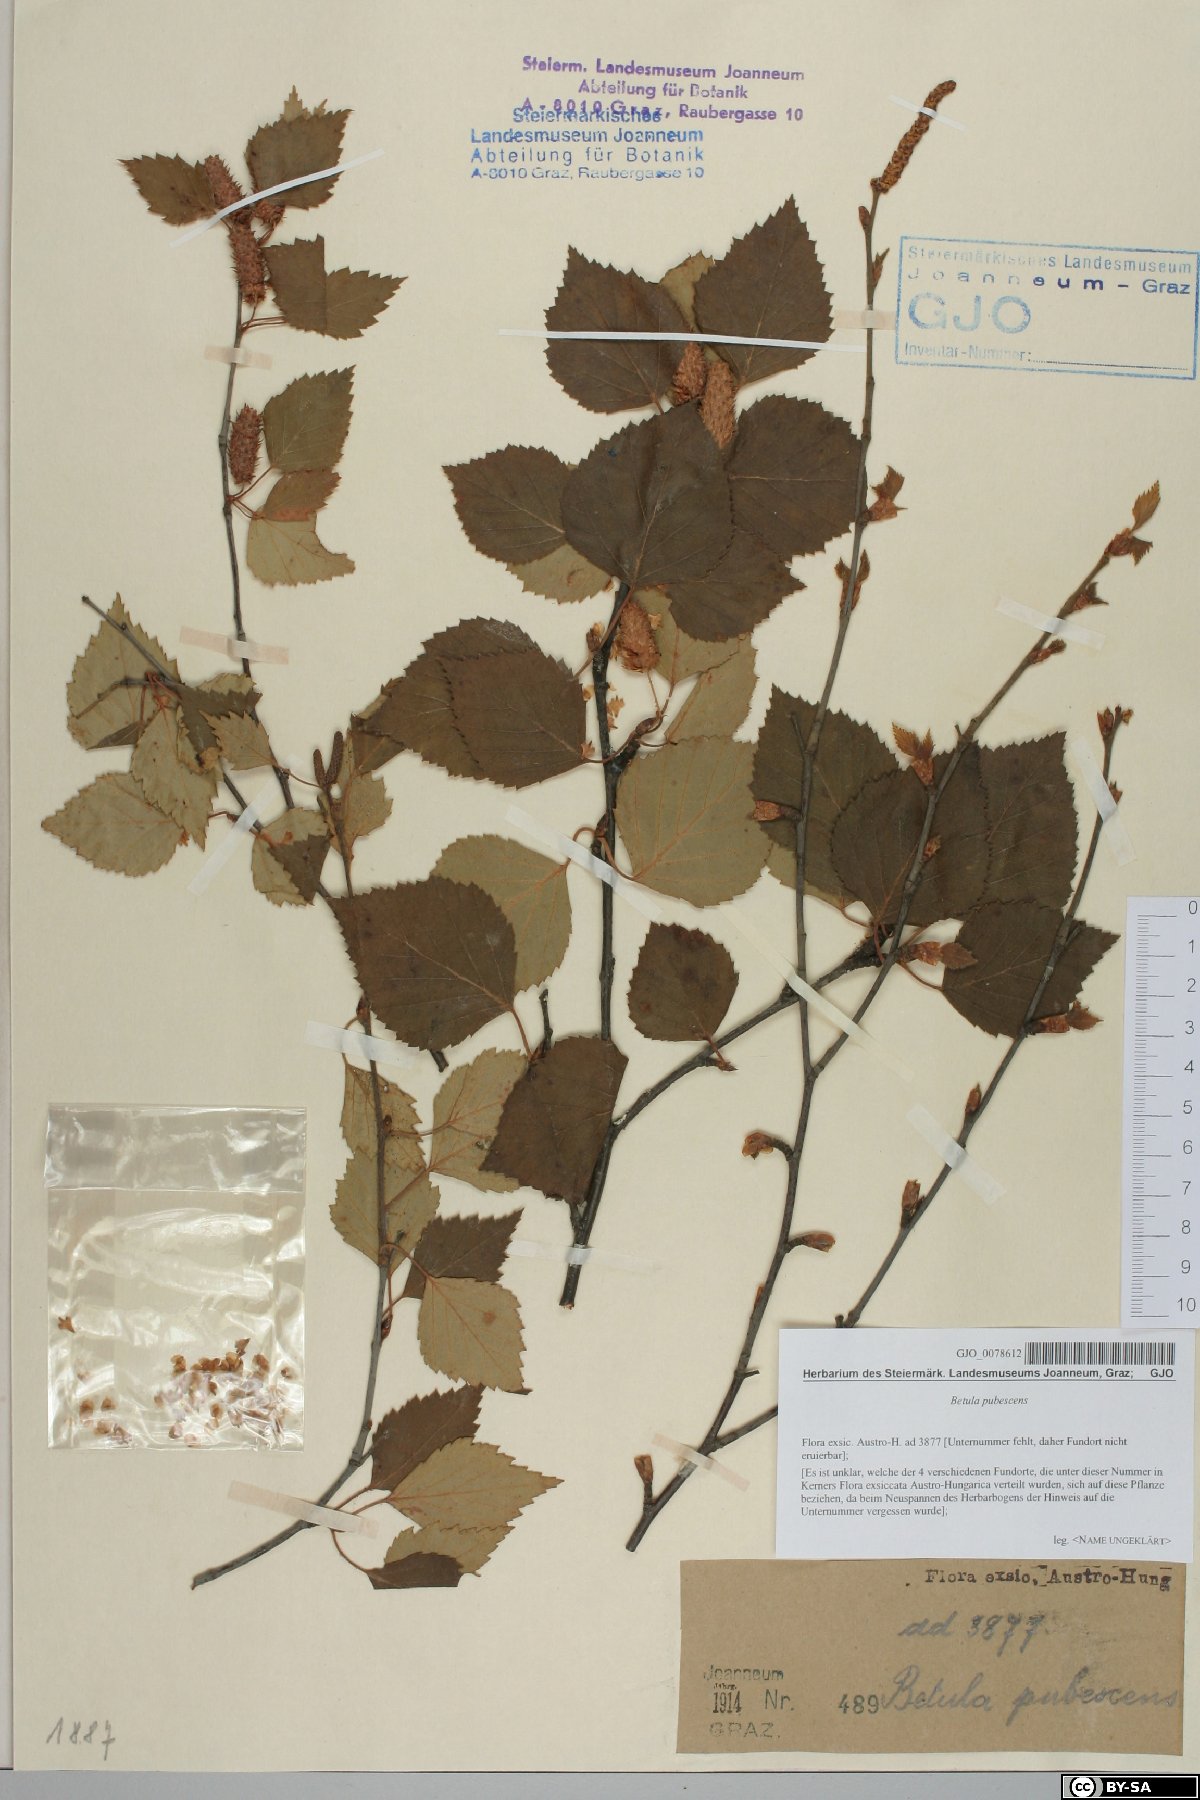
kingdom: Plantae
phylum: Tracheophyta
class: Magnoliopsida
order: Fagales
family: Betulaceae
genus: Betula
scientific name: Betula pubescens
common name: Downy birch
